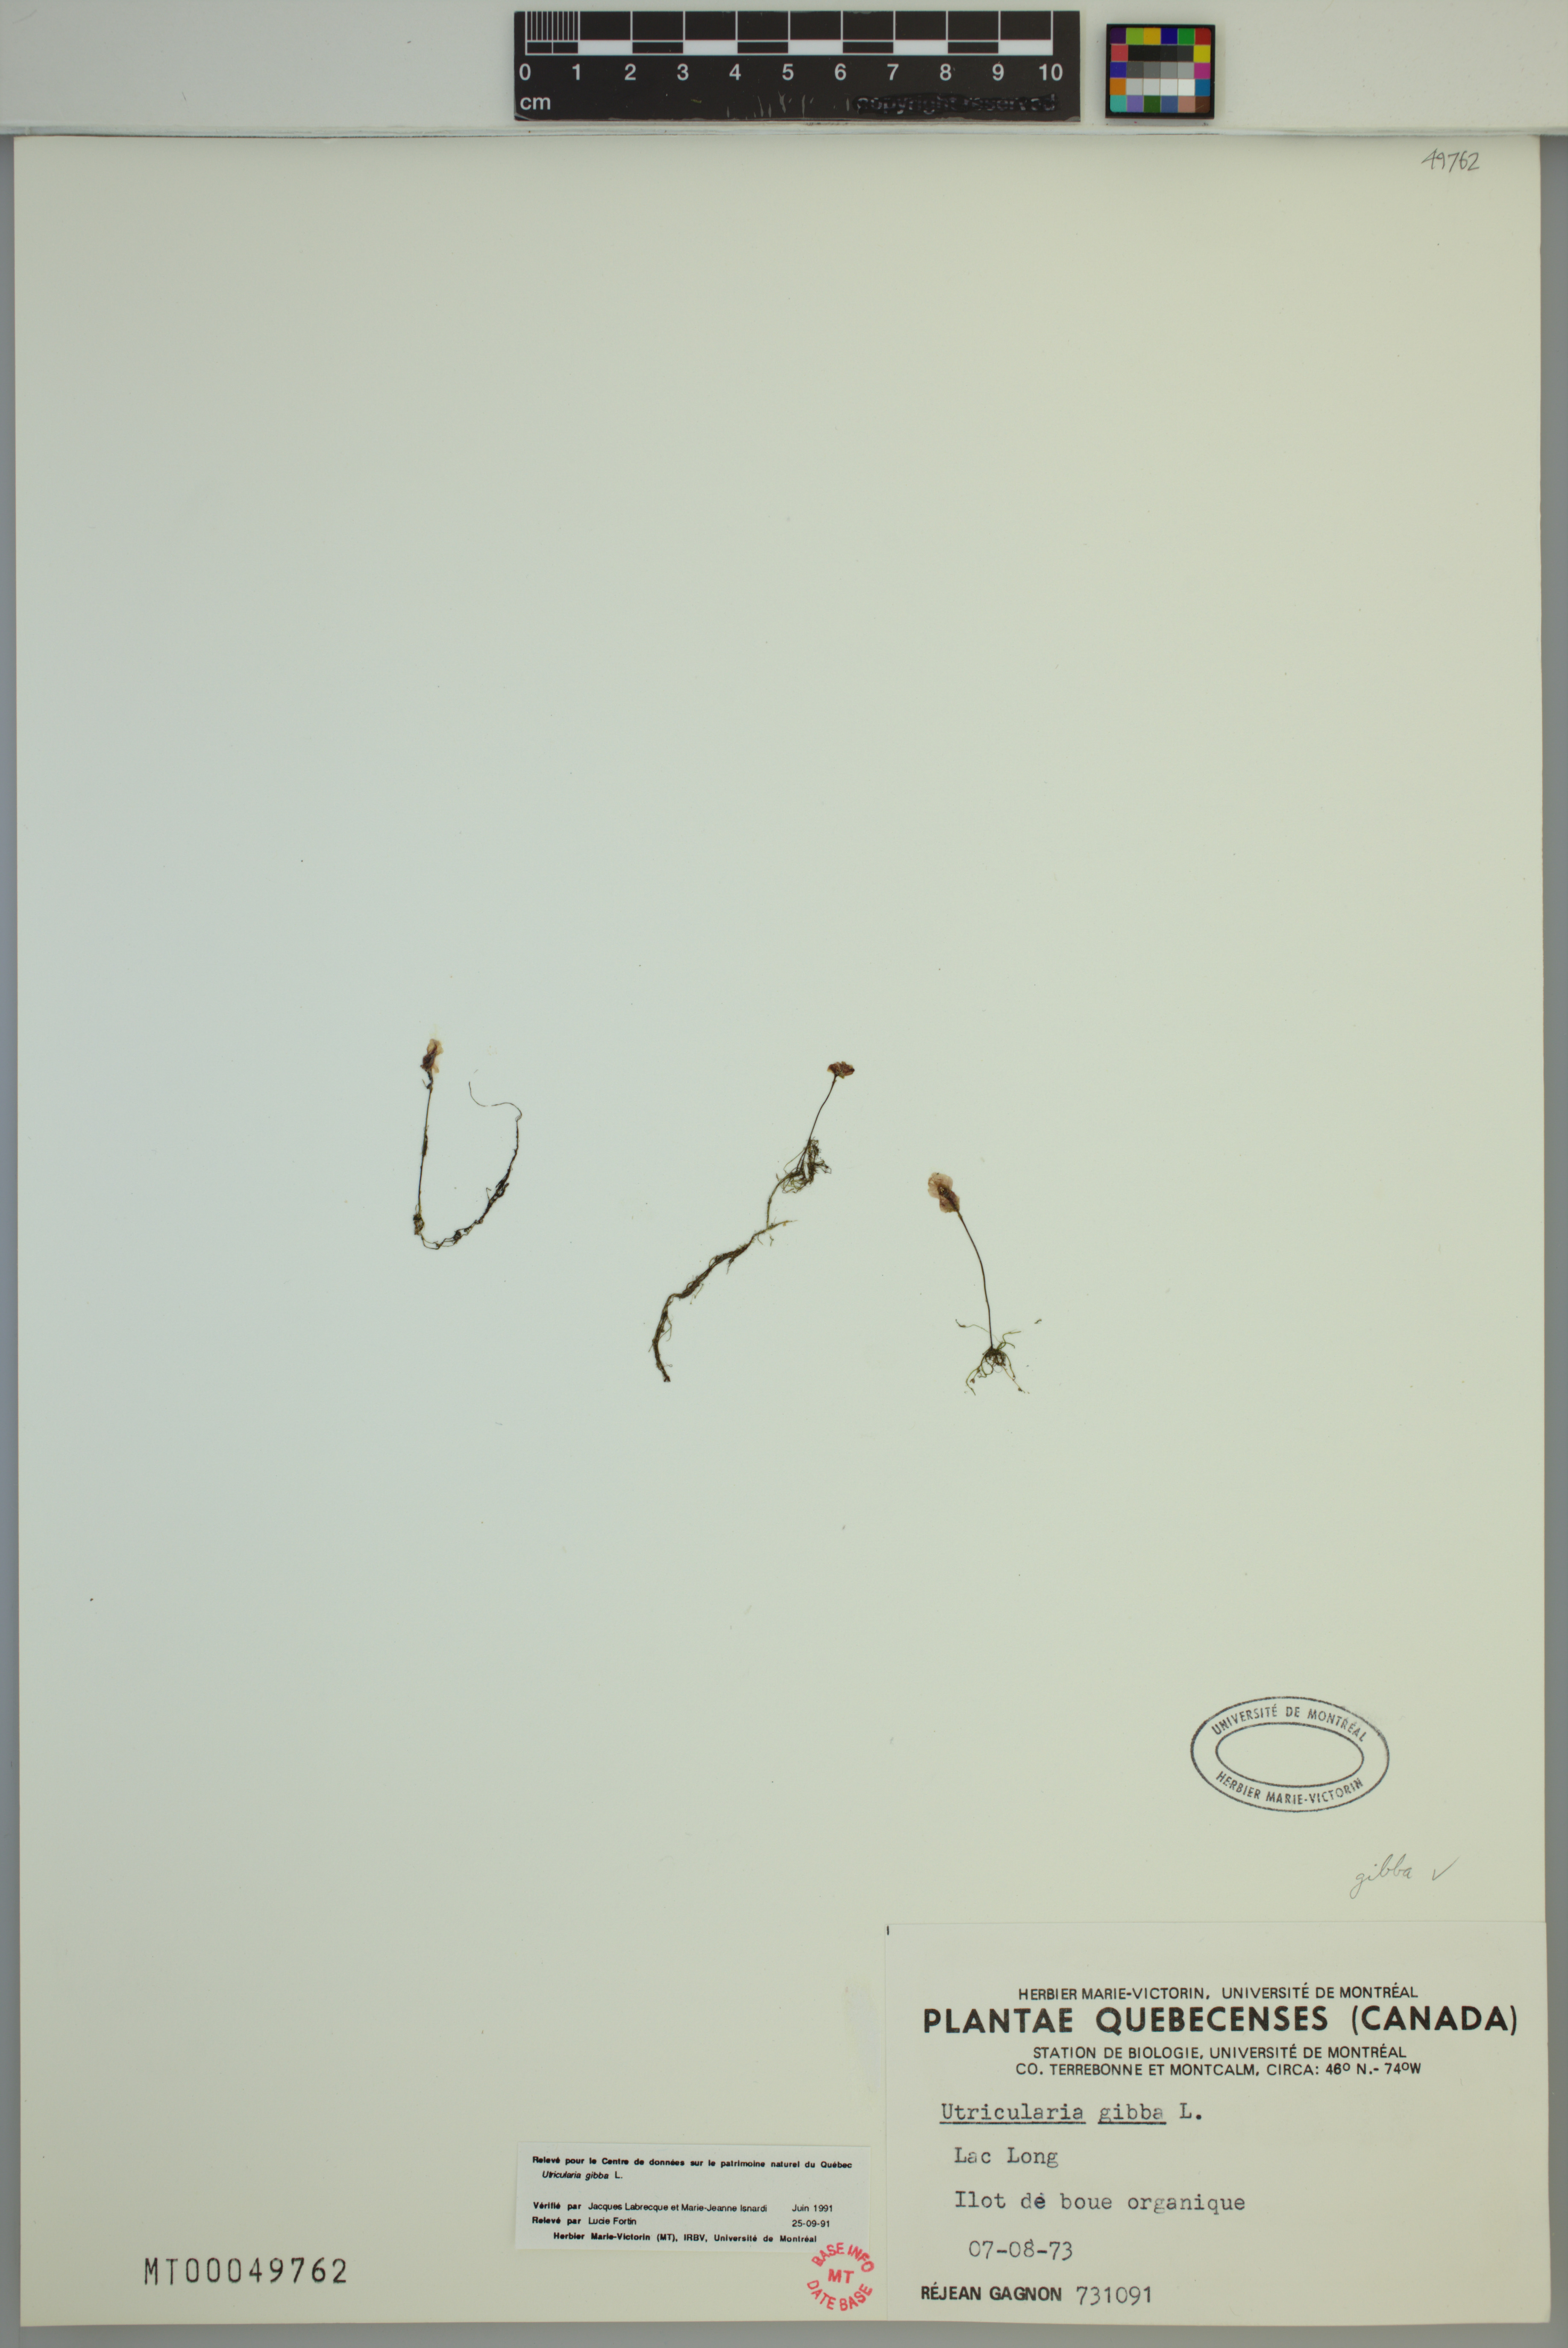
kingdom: Plantae
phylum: Tracheophyta
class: Magnoliopsida
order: Lamiales
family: Lentibulariaceae
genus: Utricularia
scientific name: Utricularia gibba
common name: Humped bladderwort
